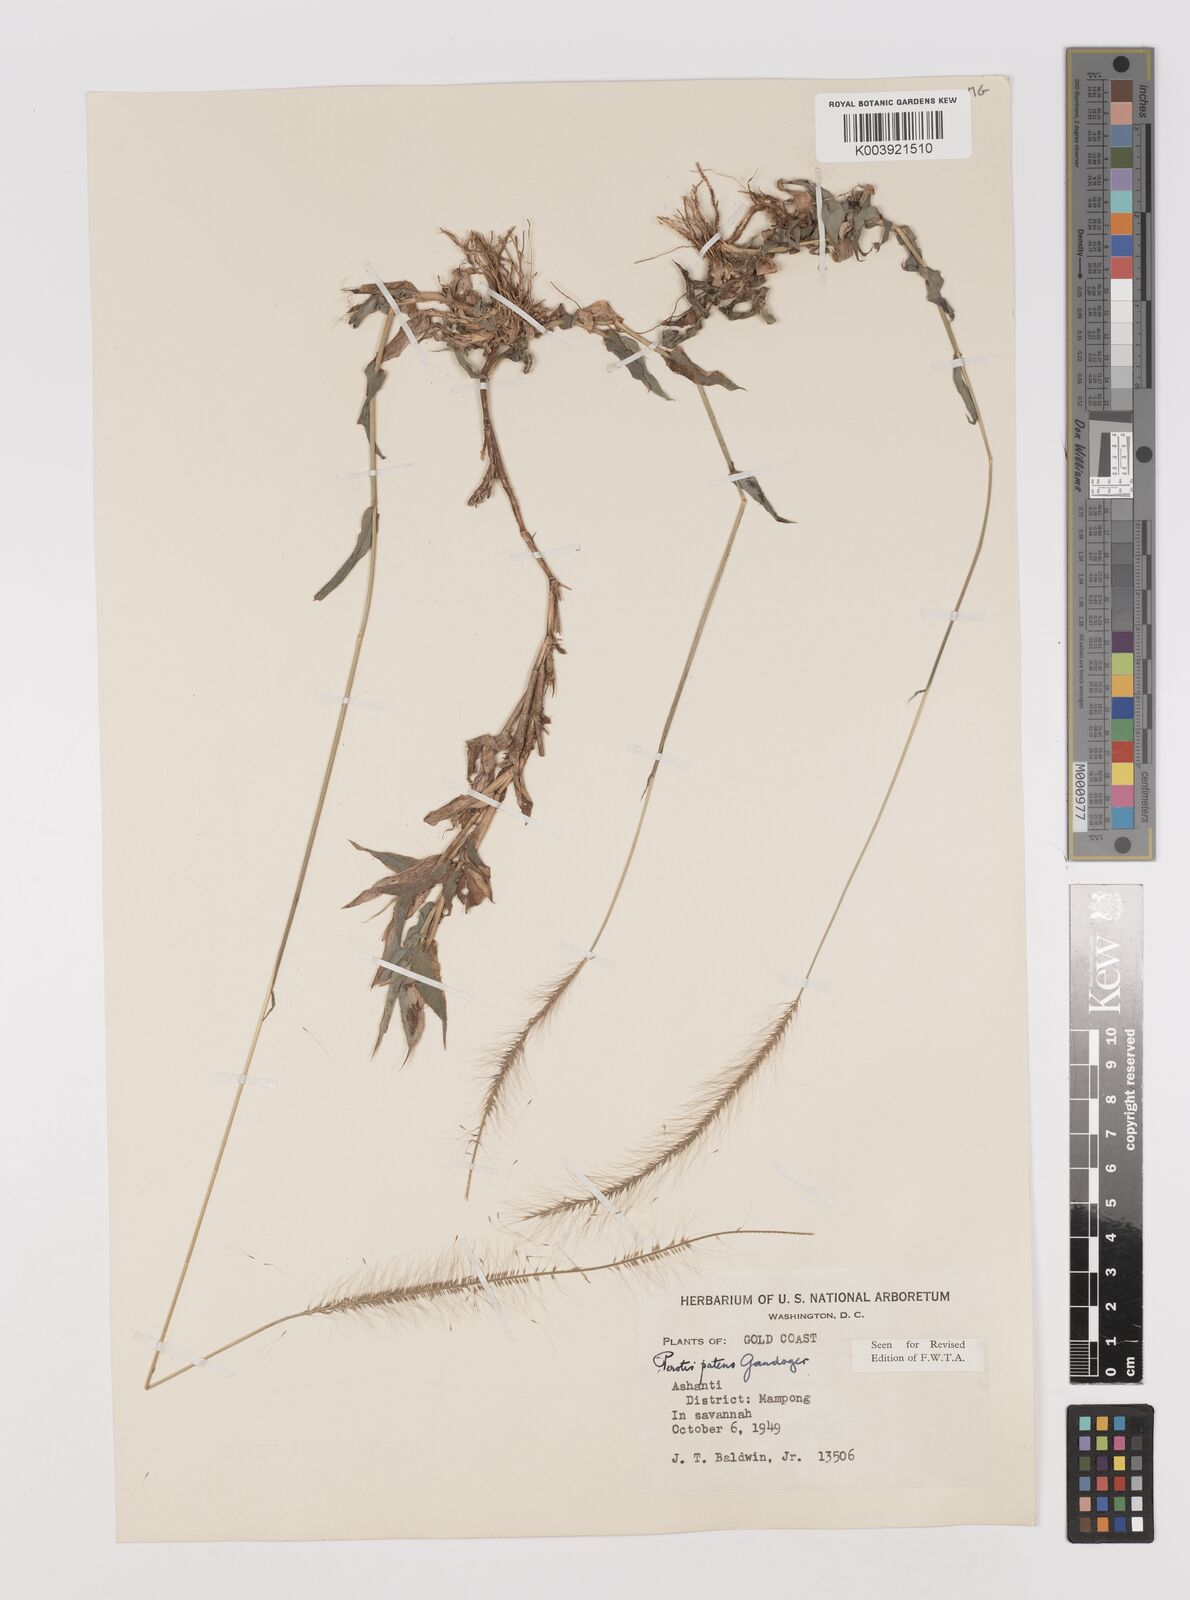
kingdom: Plantae
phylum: Tracheophyta
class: Liliopsida
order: Poales
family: Poaceae
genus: Perotis
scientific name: Perotis patens
